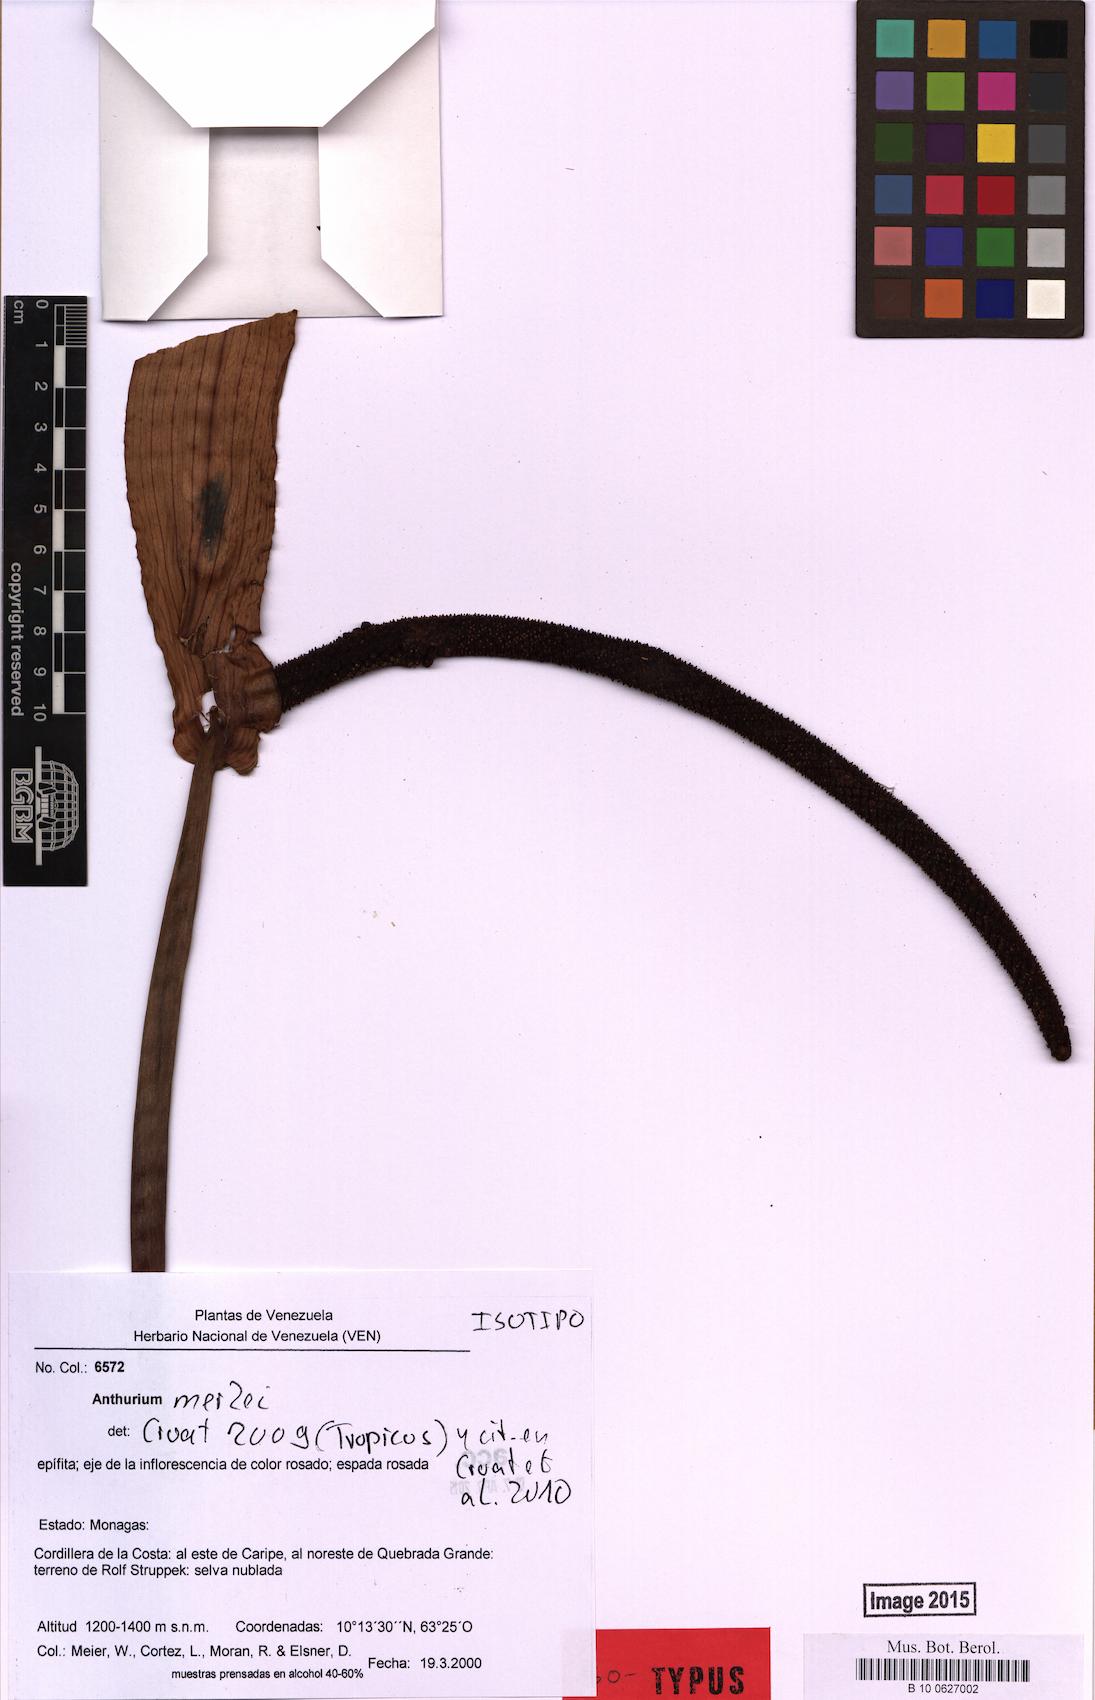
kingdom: Plantae
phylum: Tracheophyta
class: Liliopsida
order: Alismatales
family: Araceae
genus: Anthurium
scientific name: Anthurium merlei
